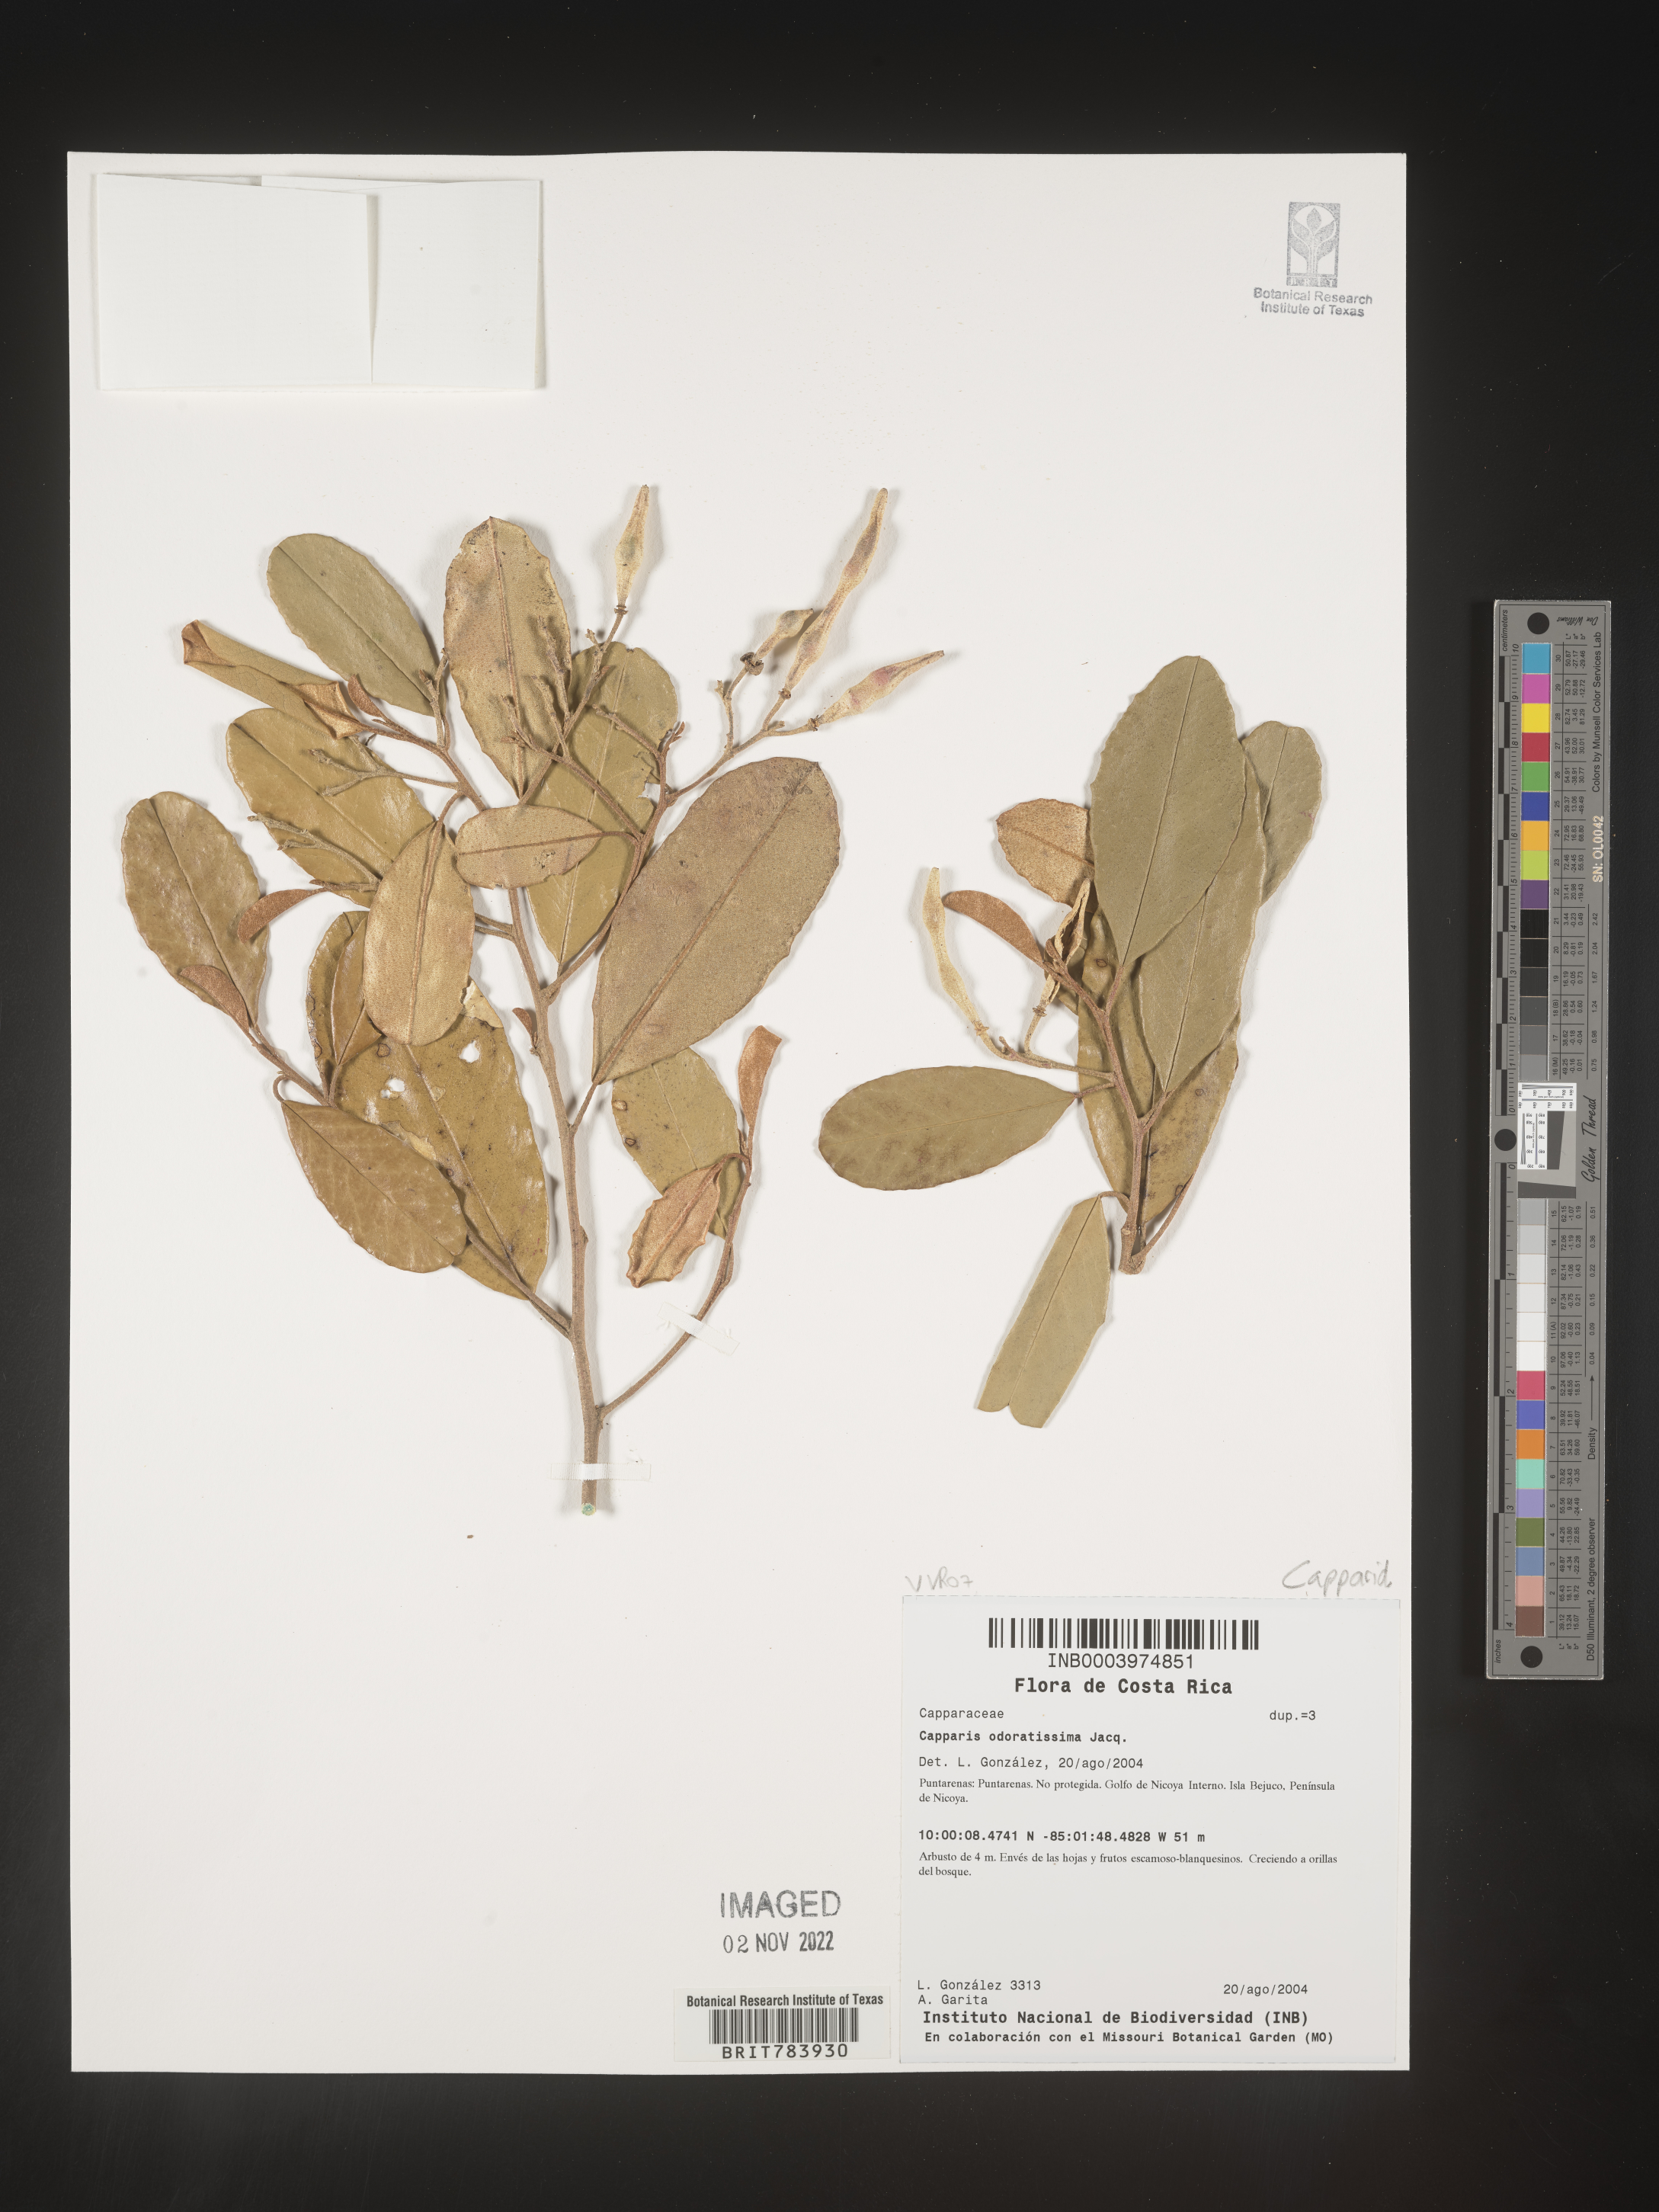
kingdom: Plantae
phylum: Tracheophyta
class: Magnoliopsida
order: Brassicales
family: Capparaceae
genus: Capparis
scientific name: Capparis
